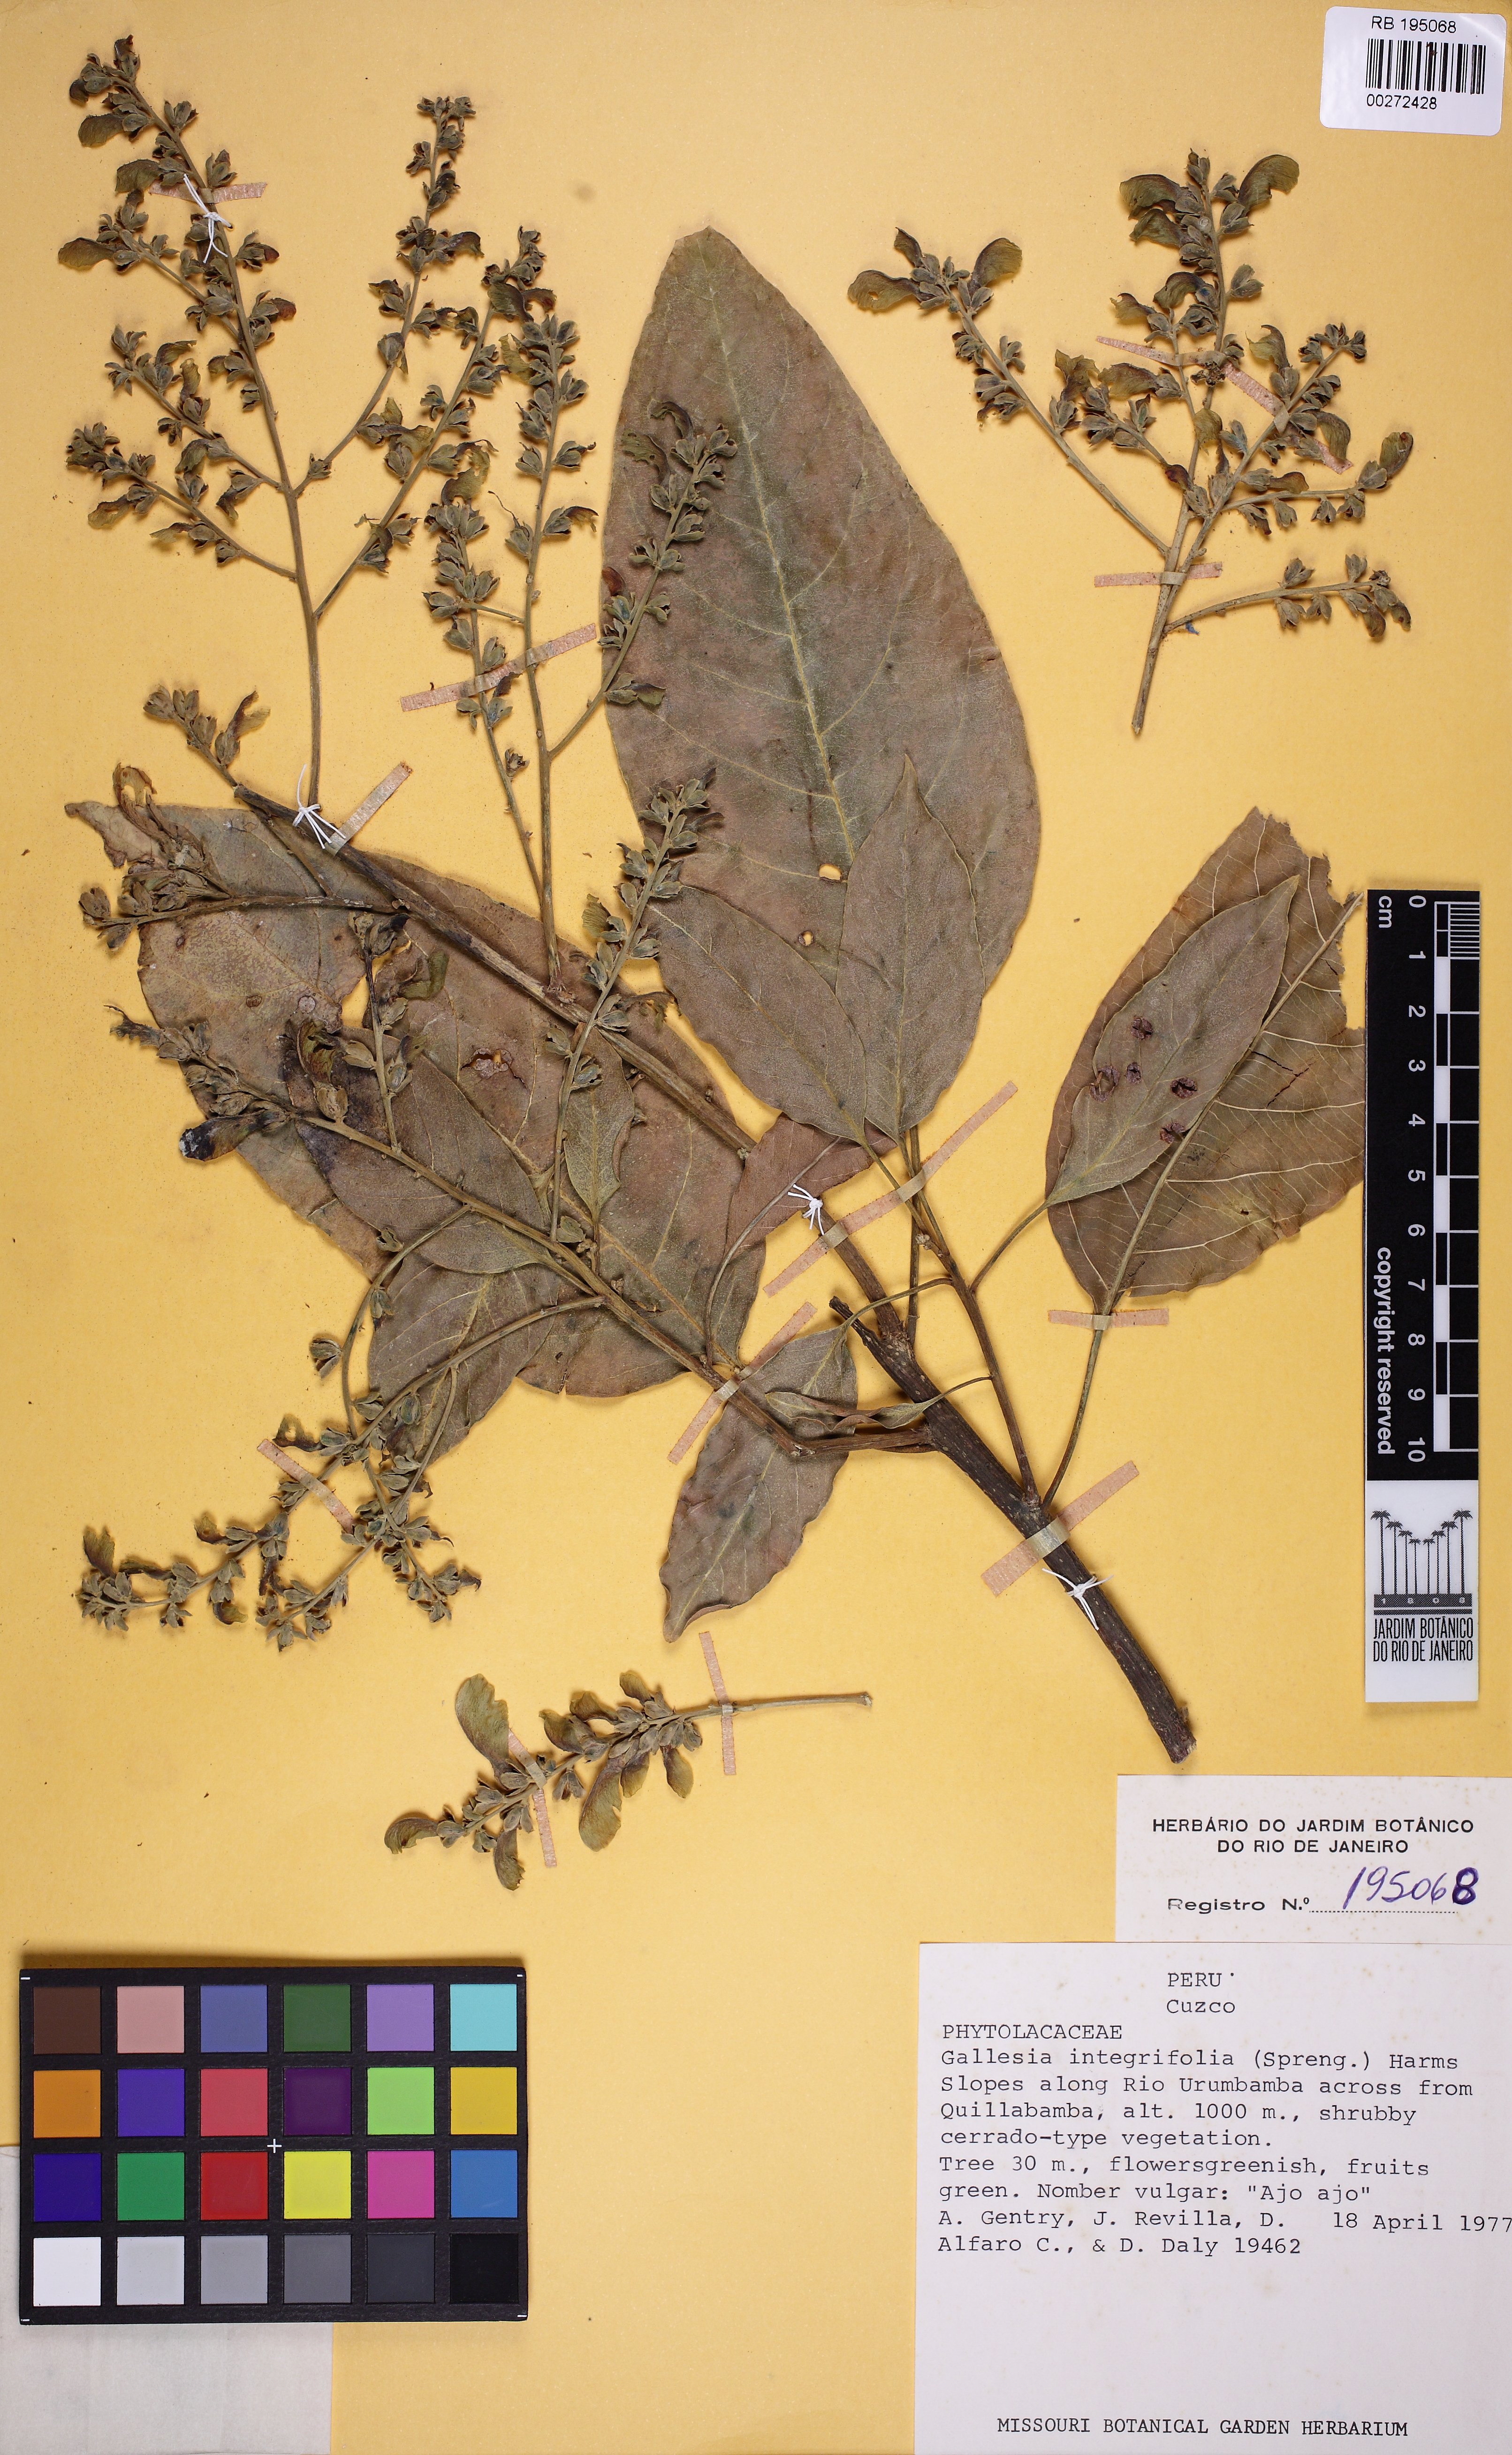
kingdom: Plantae
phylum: Tracheophyta
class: Magnoliopsida
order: Caryophyllales
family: Phytolaccaceae
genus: Gallesia
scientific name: Gallesia integrifolia
